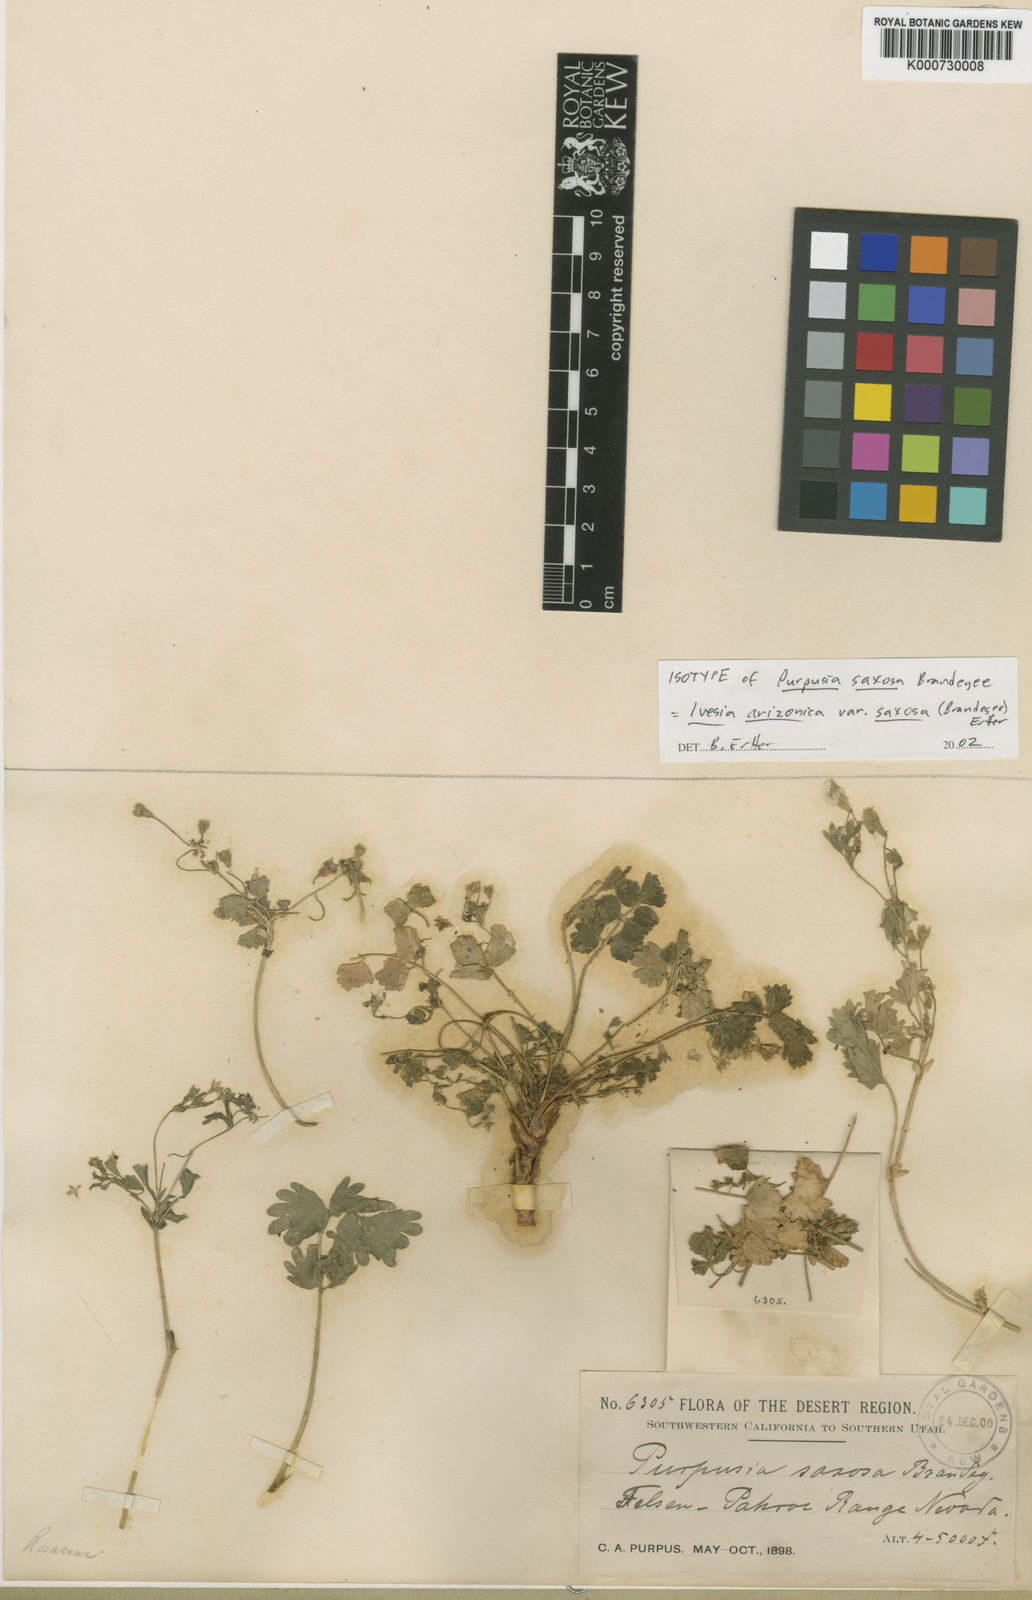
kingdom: Plantae
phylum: Tracheophyta
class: Magnoliopsida
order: Rosales
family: Rosaceae
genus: Potentilla
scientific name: Potentilla osterhoutii
